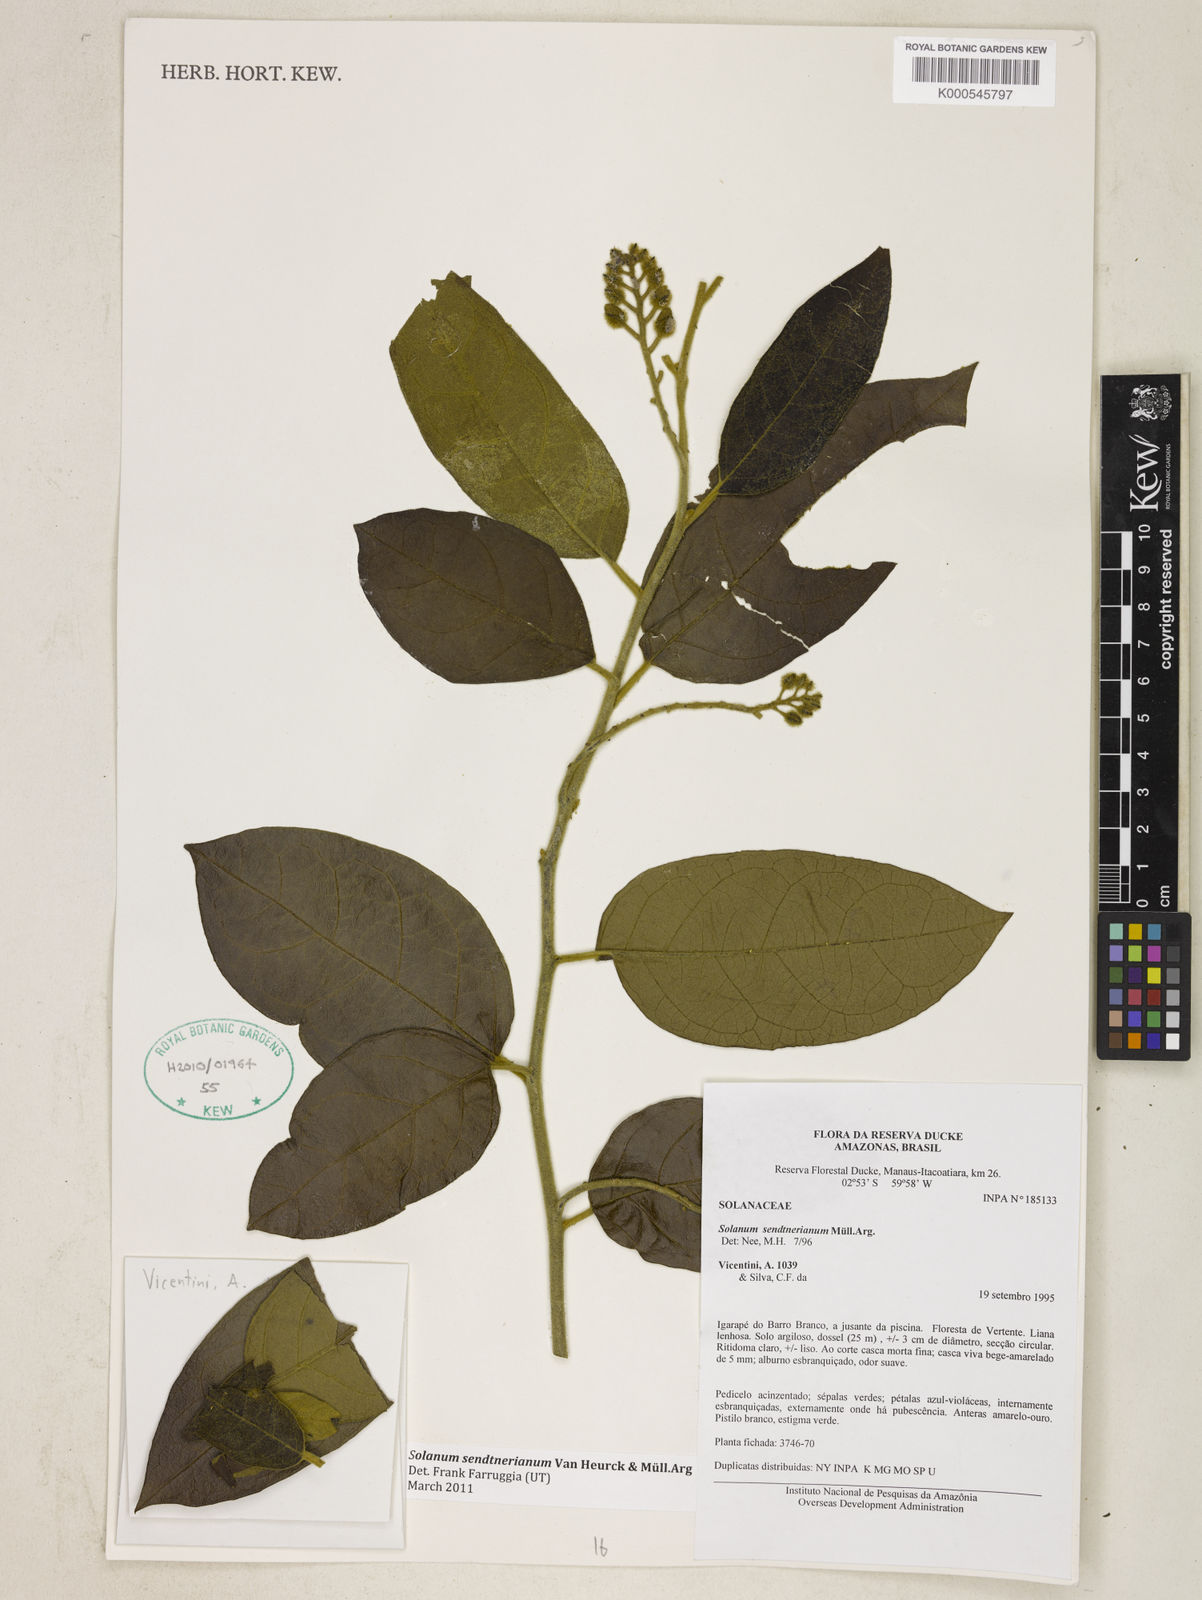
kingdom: Plantae
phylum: Tracheophyta
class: Magnoliopsida
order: Solanales
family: Solanaceae
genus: Solanum
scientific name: Solanum
